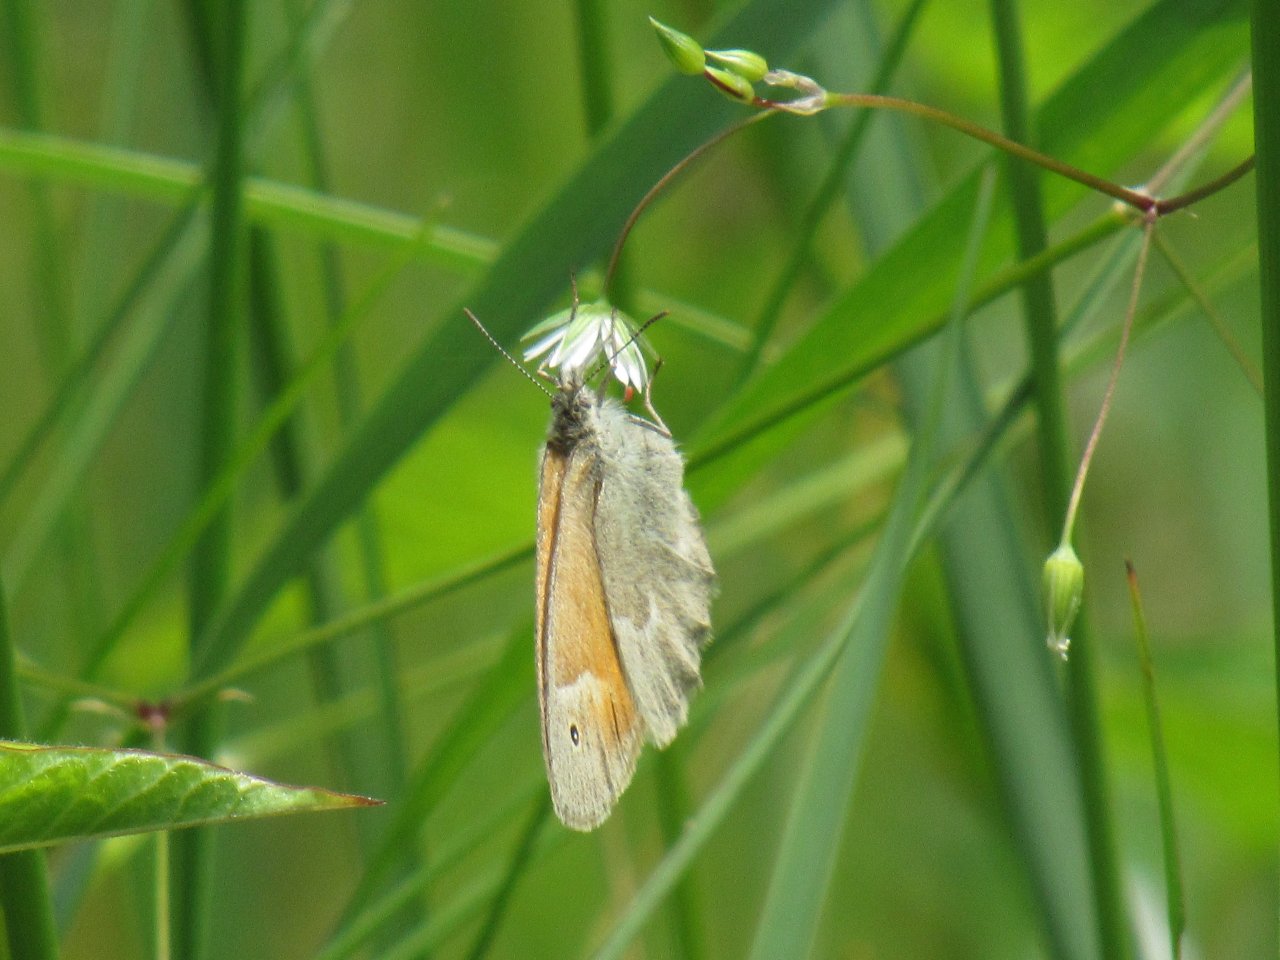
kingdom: Animalia
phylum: Arthropoda
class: Insecta
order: Lepidoptera
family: Nymphalidae
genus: Coenonympha
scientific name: Coenonympha tullia
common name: Large Heath
